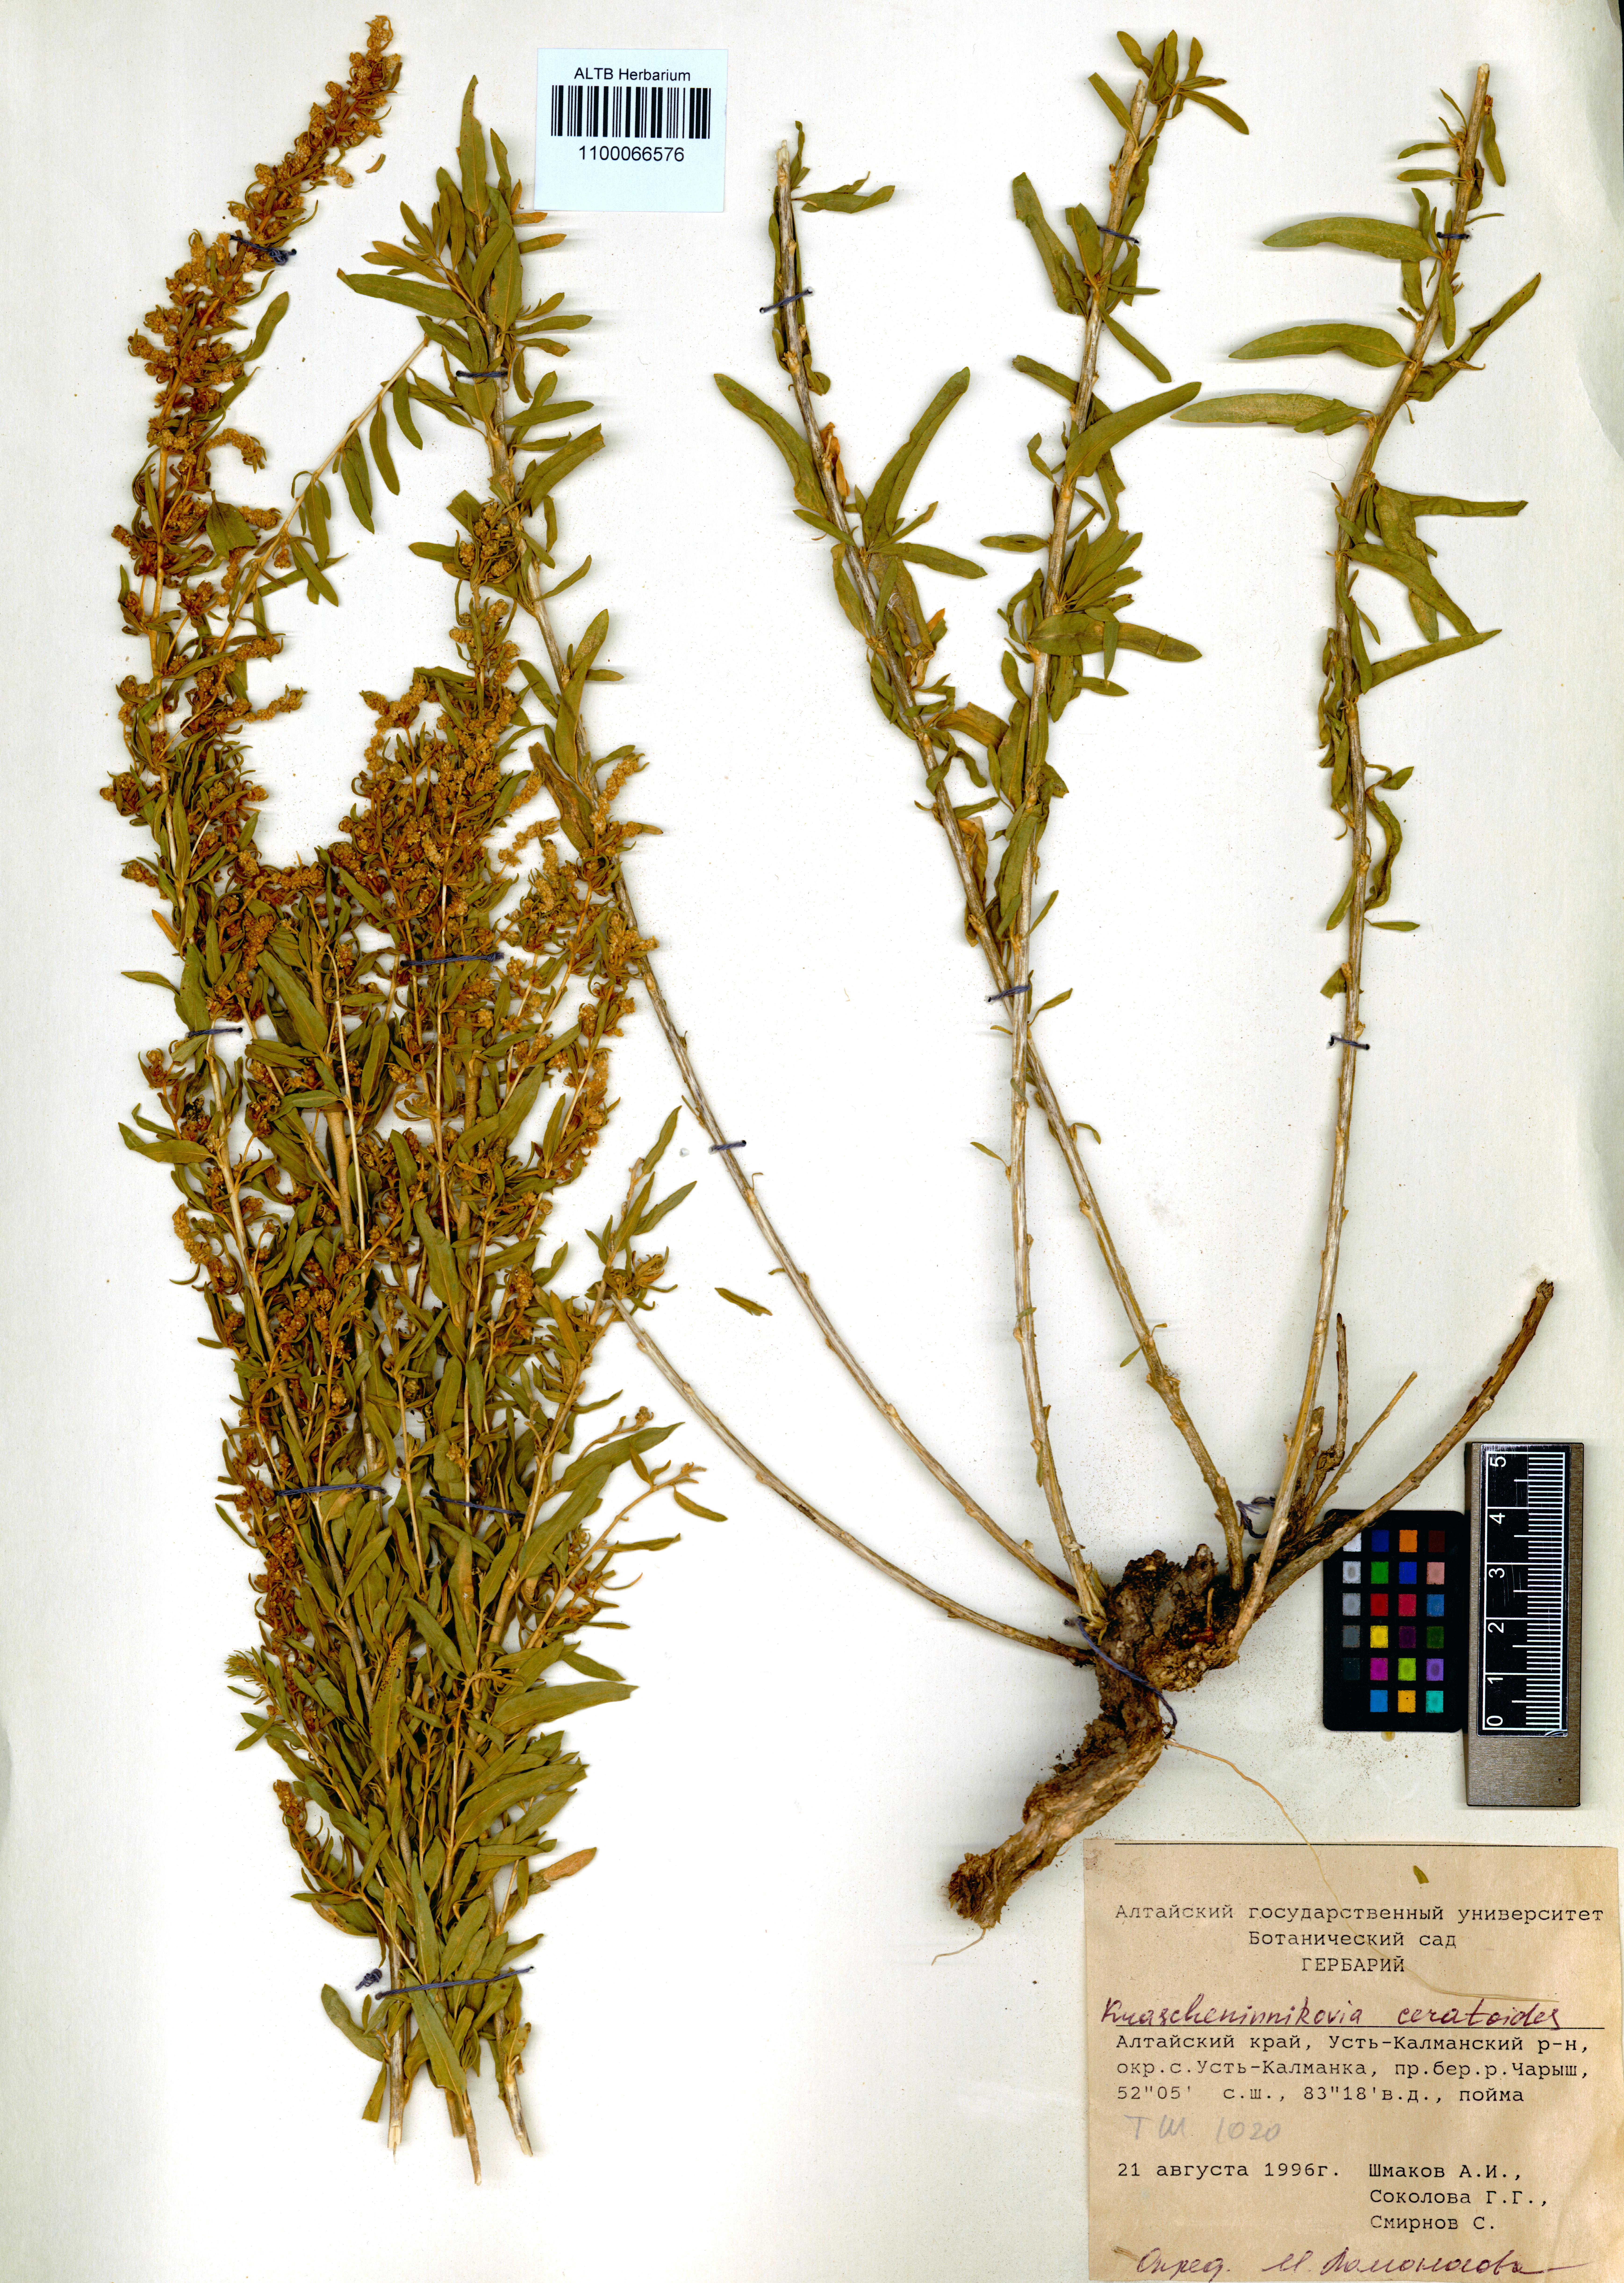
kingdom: Plantae
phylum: Tracheophyta
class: Magnoliopsida
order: Caryophyllales
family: Amaranthaceae
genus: Krascheninnikovia
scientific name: Krascheninnikovia ceratoides
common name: Pamirian winterfat
